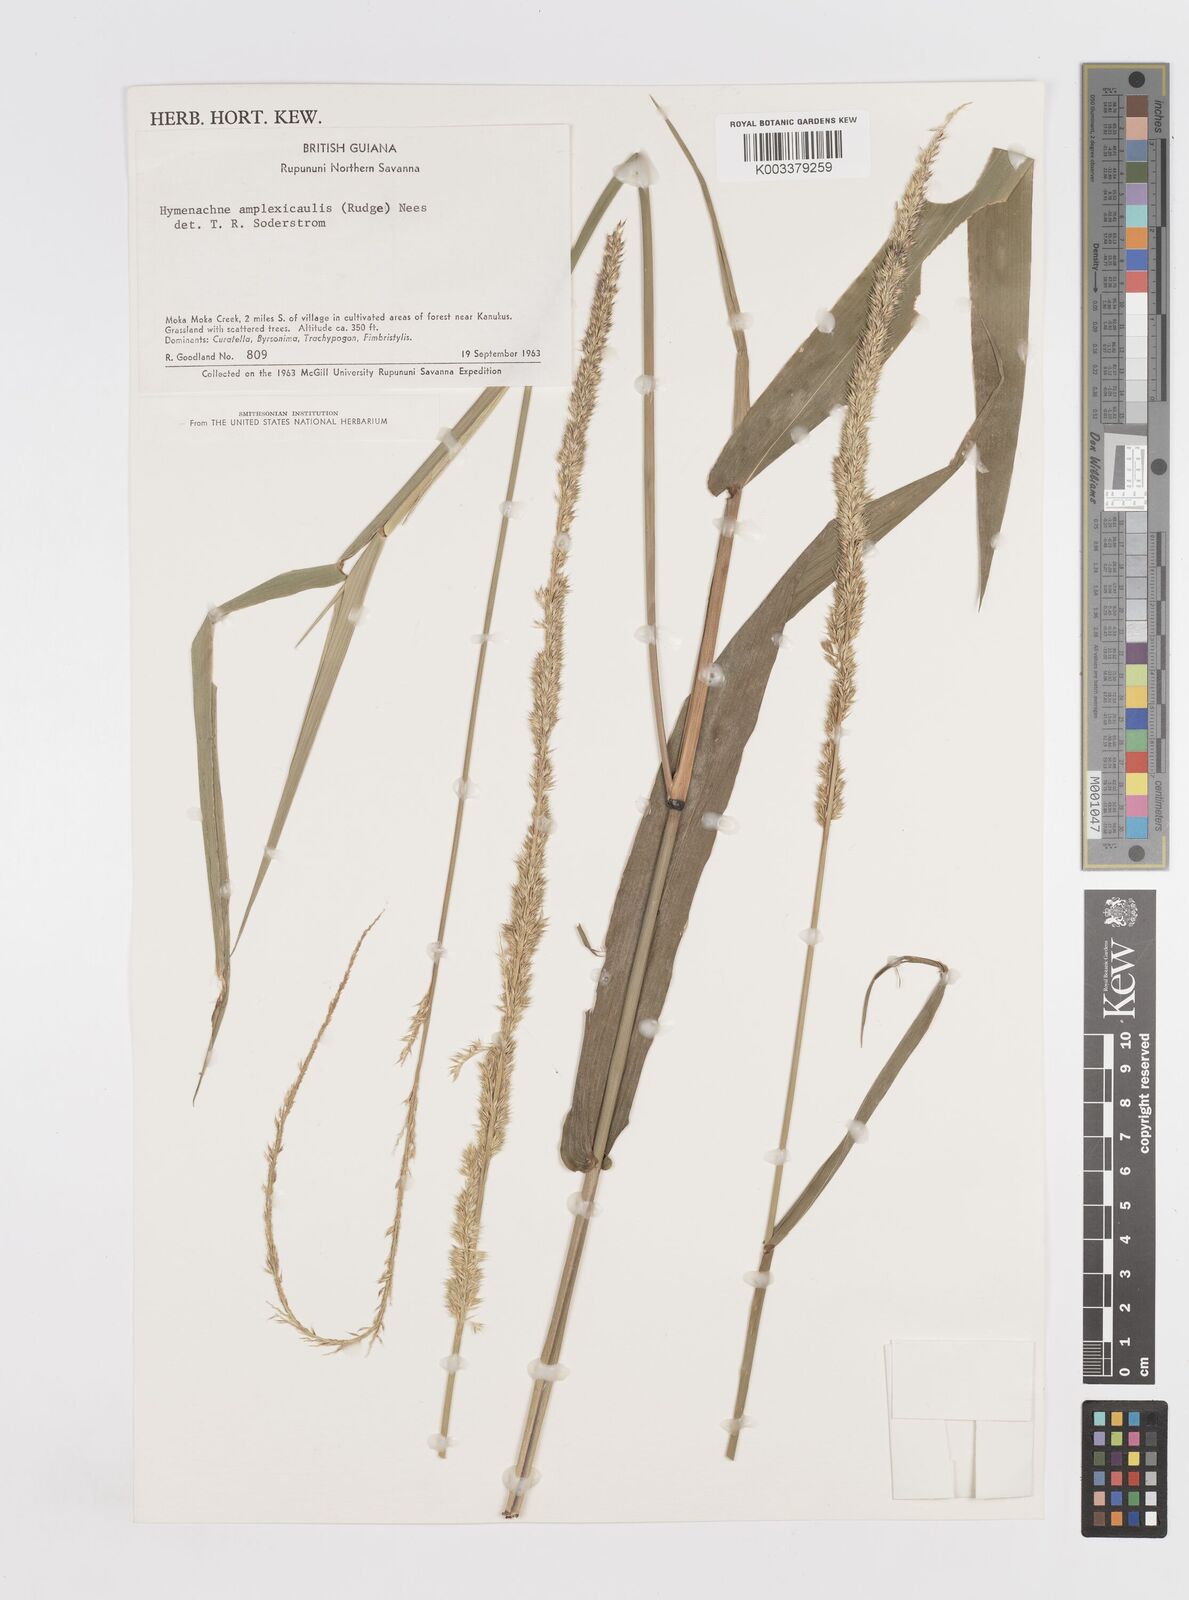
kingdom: Plantae
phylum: Tracheophyta
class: Liliopsida
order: Poales
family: Poaceae
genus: Hymenachne
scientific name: Hymenachne amplexicaulis
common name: Olive hymenachne
